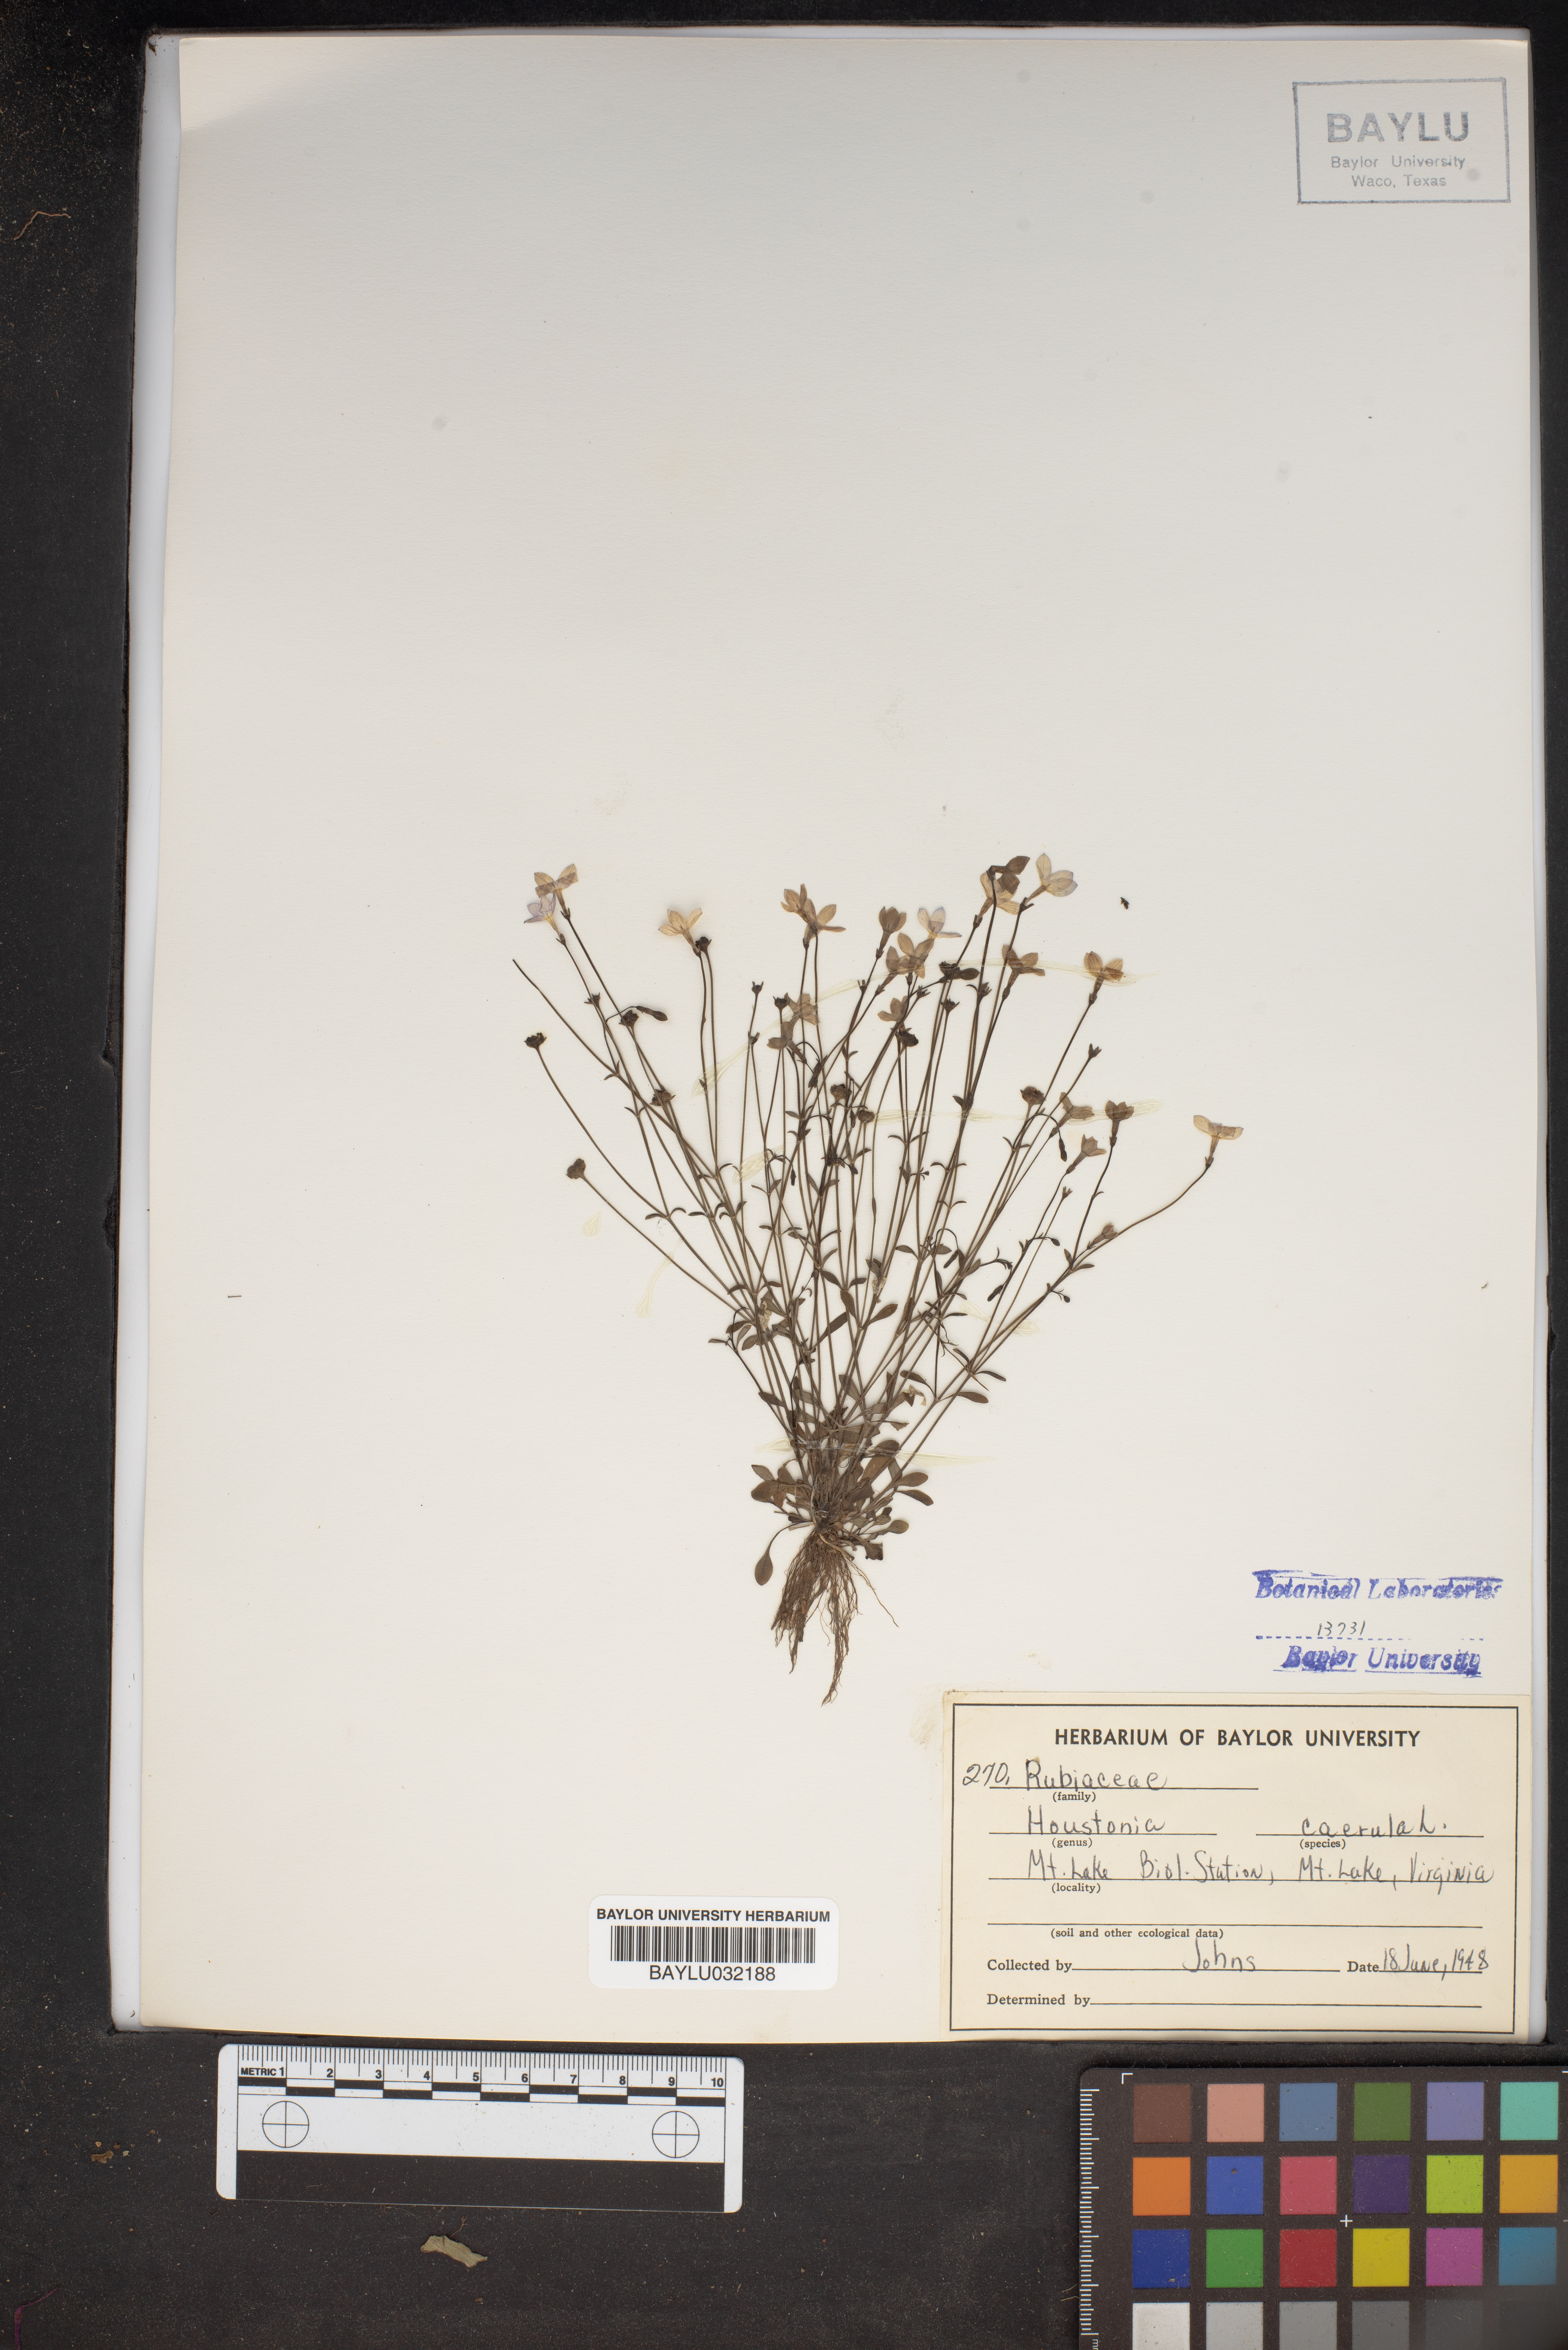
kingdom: Plantae
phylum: Tracheophyta
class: Magnoliopsida
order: Gentianales
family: Rubiaceae
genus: Houstonia
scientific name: Houstonia caerulea
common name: Bluets
